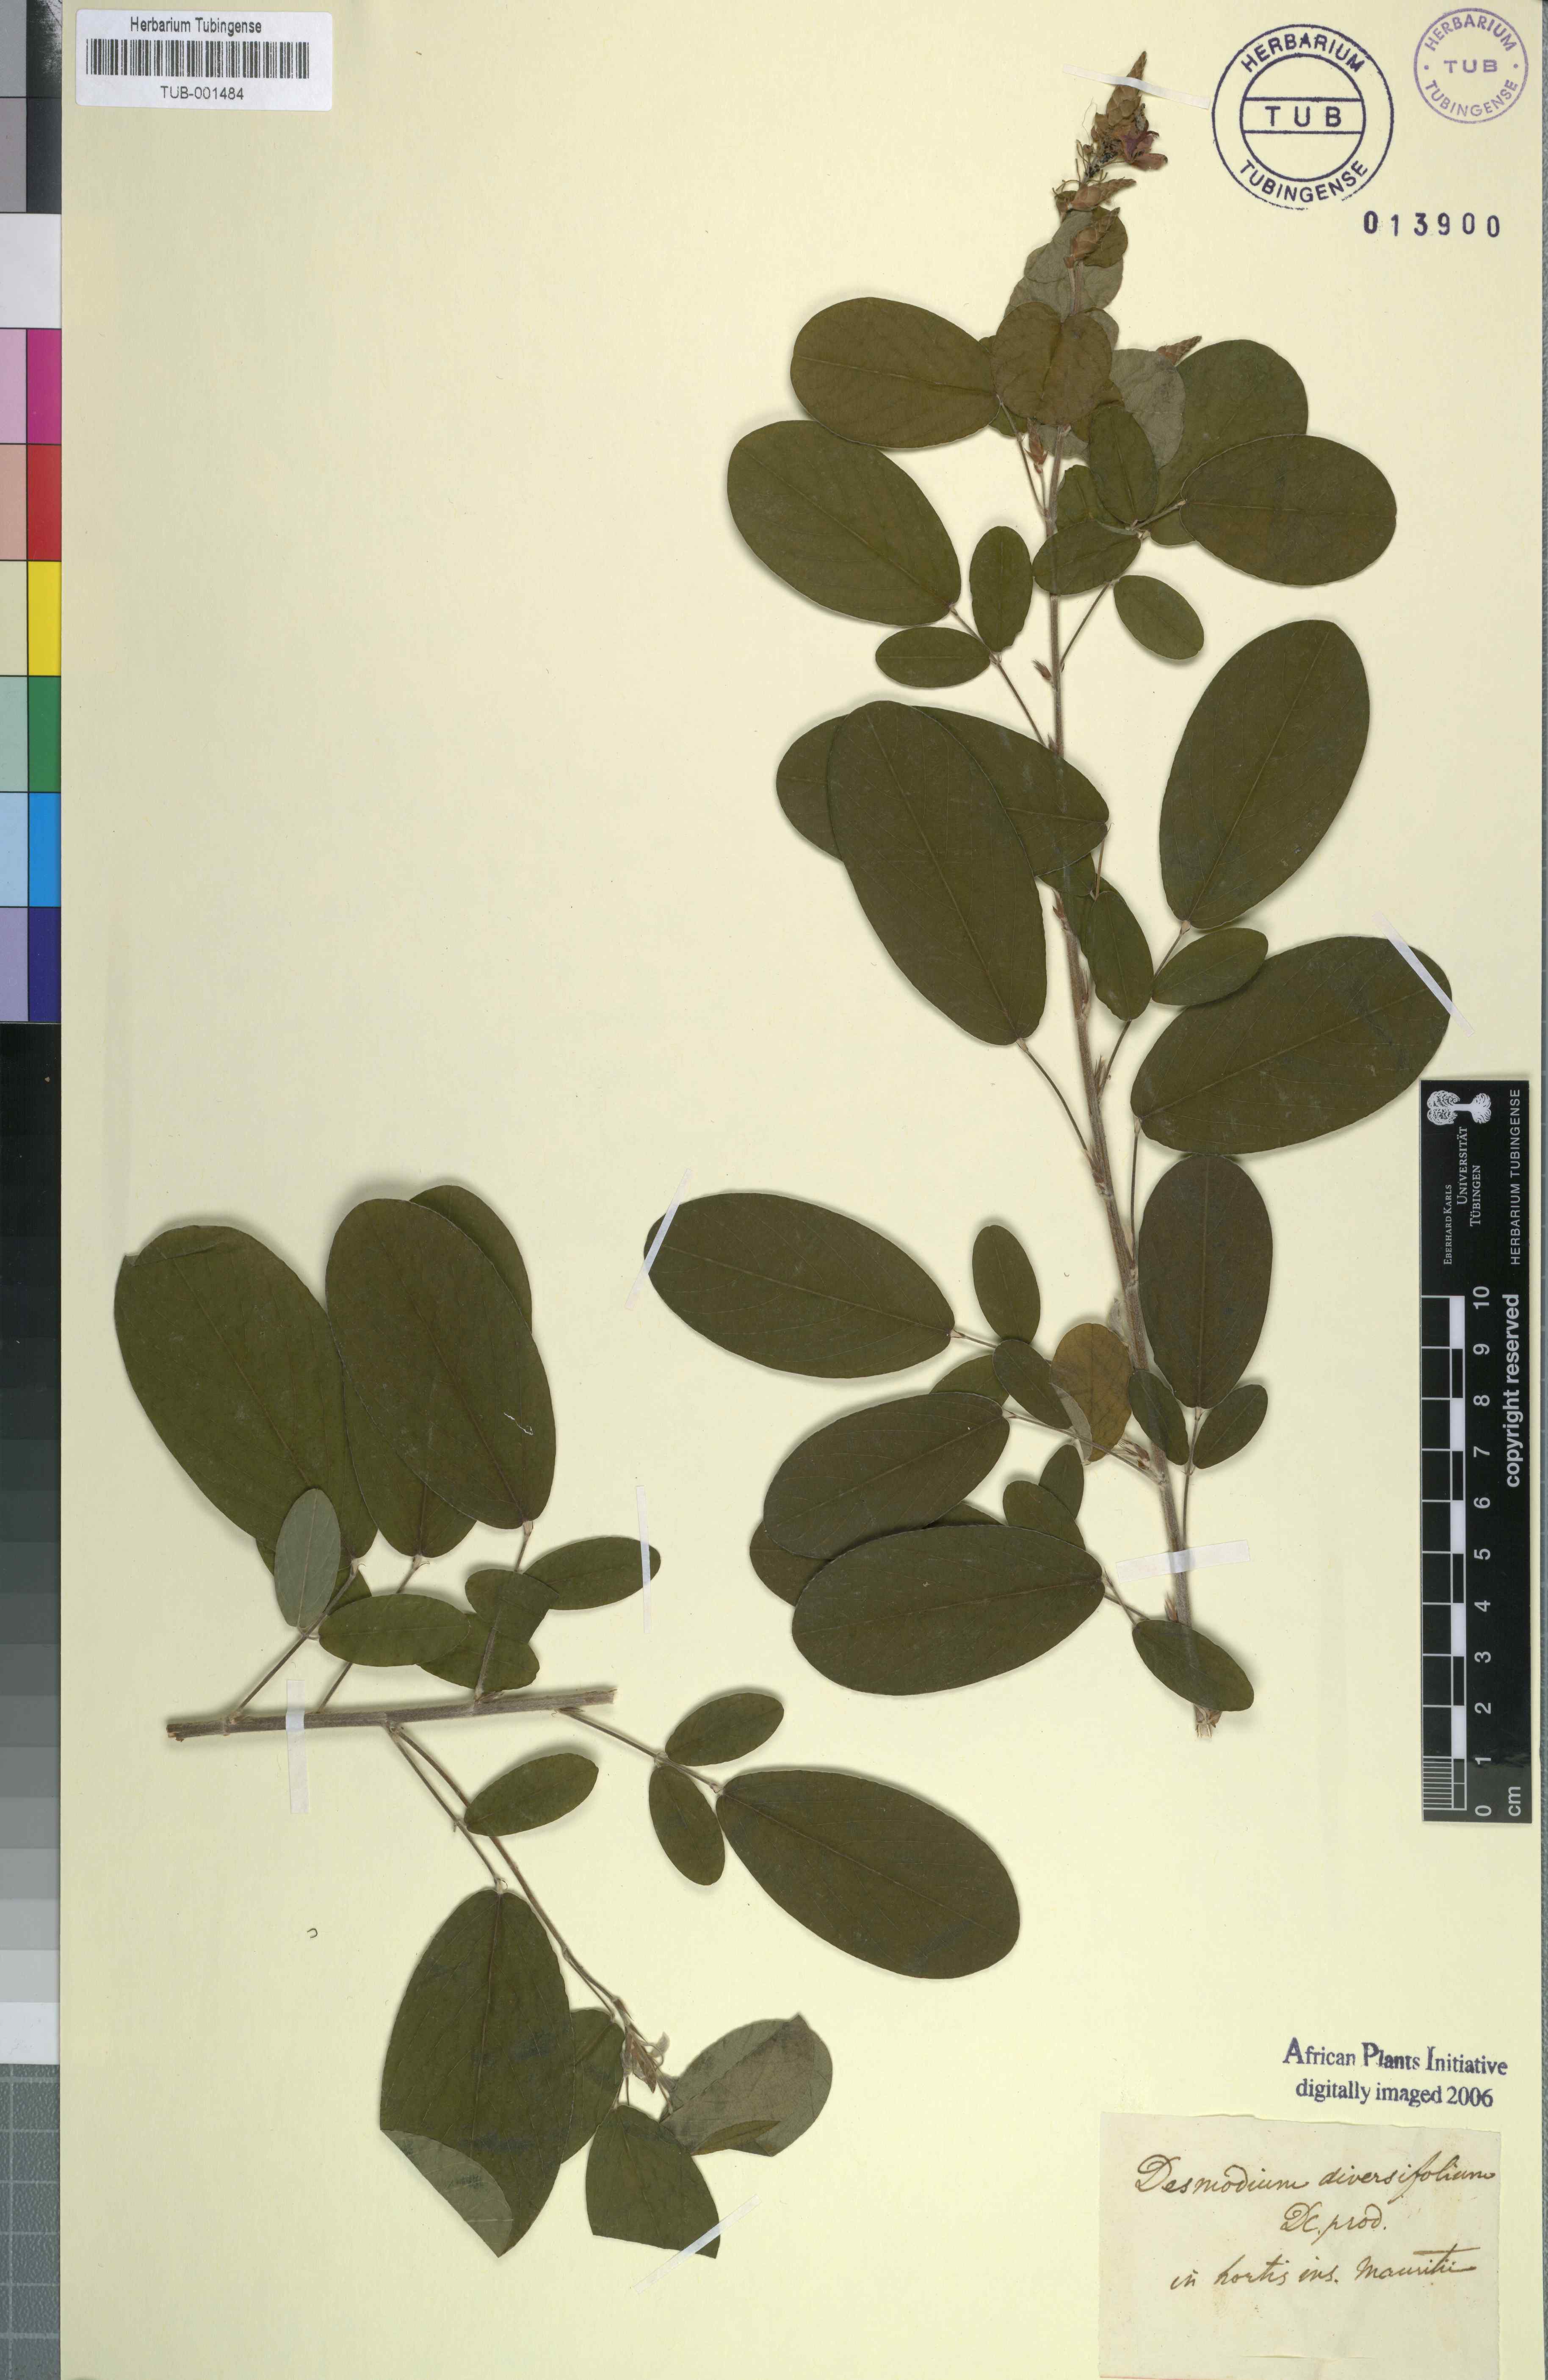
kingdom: Plantae
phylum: Tracheophyta
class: Magnoliopsida
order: Fabales
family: Fabaceae
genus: Desmodium
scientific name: Desmodium incanum
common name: Tickclover
